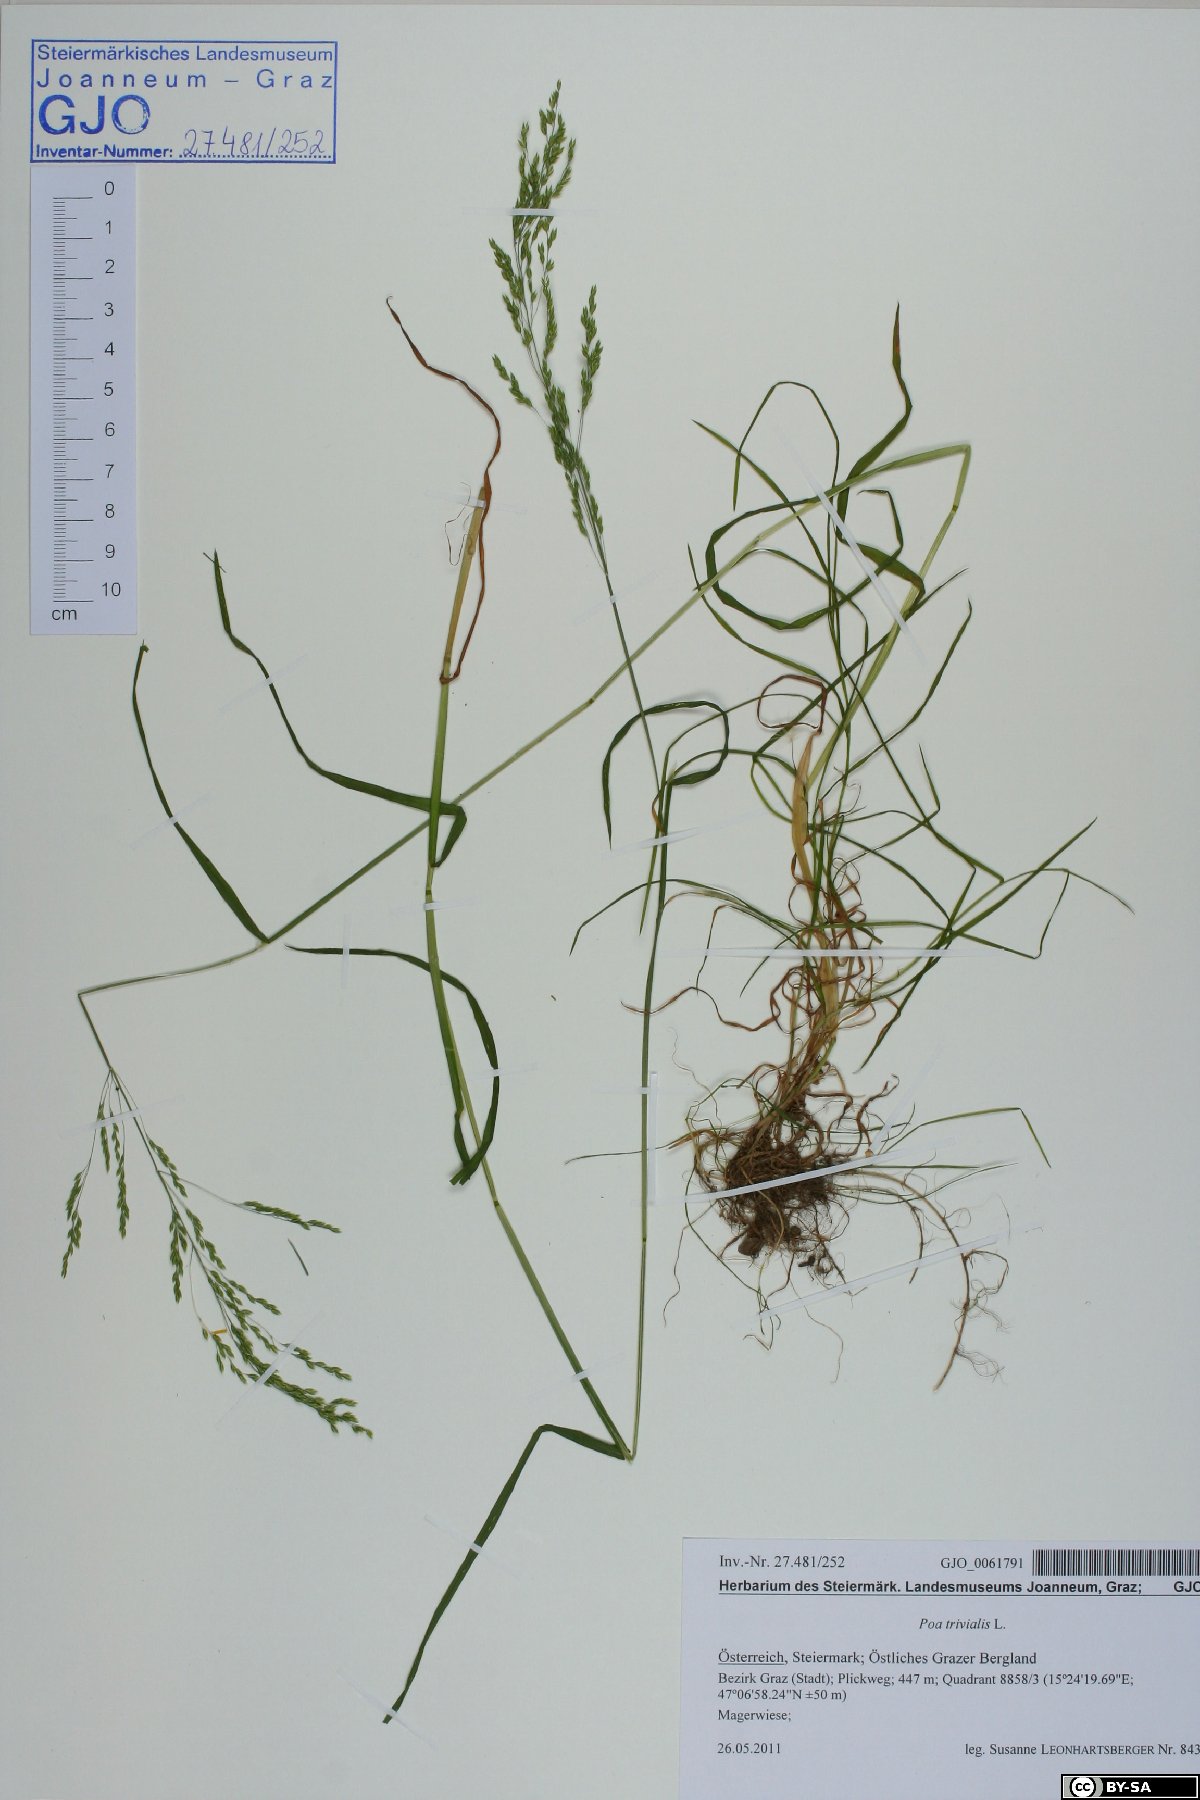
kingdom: Plantae
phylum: Tracheophyta
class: Liliopsida
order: Poales
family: Poaceae
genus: Poa
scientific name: Poa trivialis
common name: Rough bluegrass
